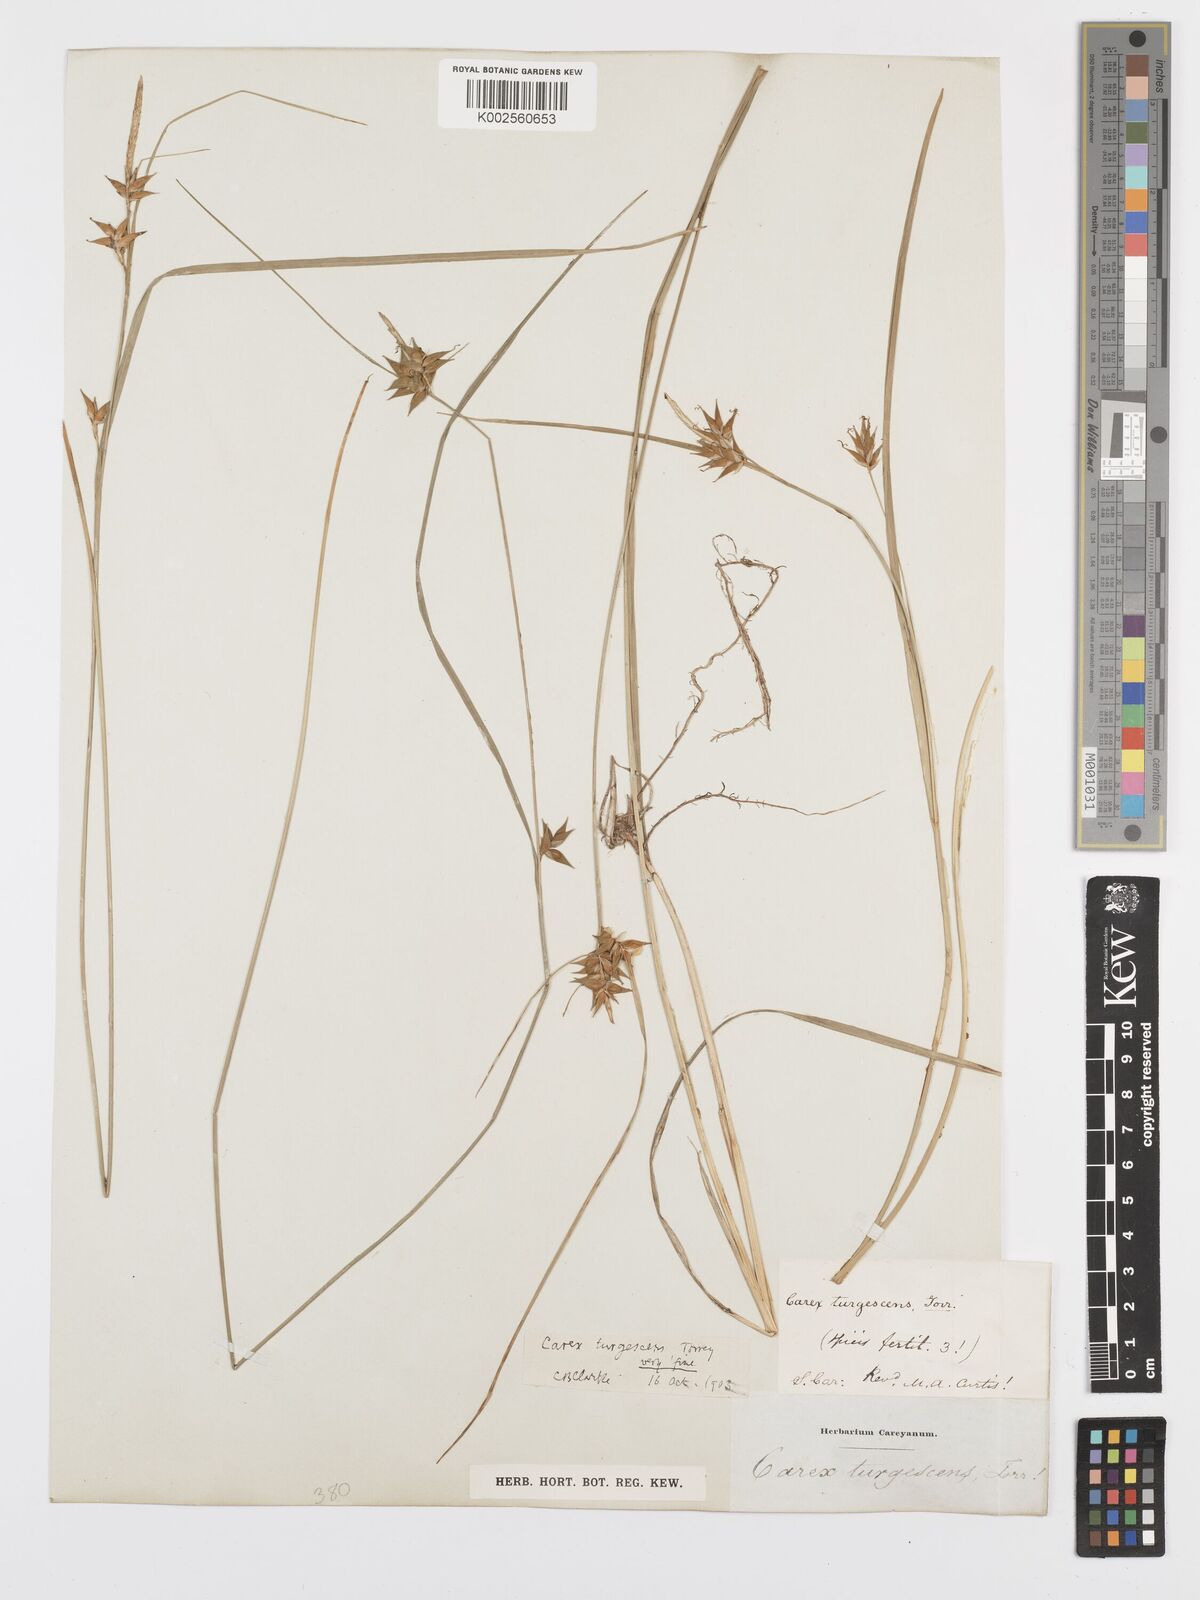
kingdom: Plantae
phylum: Tracheophyta
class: Liliopsida
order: Poales
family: Cyperaceae
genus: Carex
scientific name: Carex turgescens
